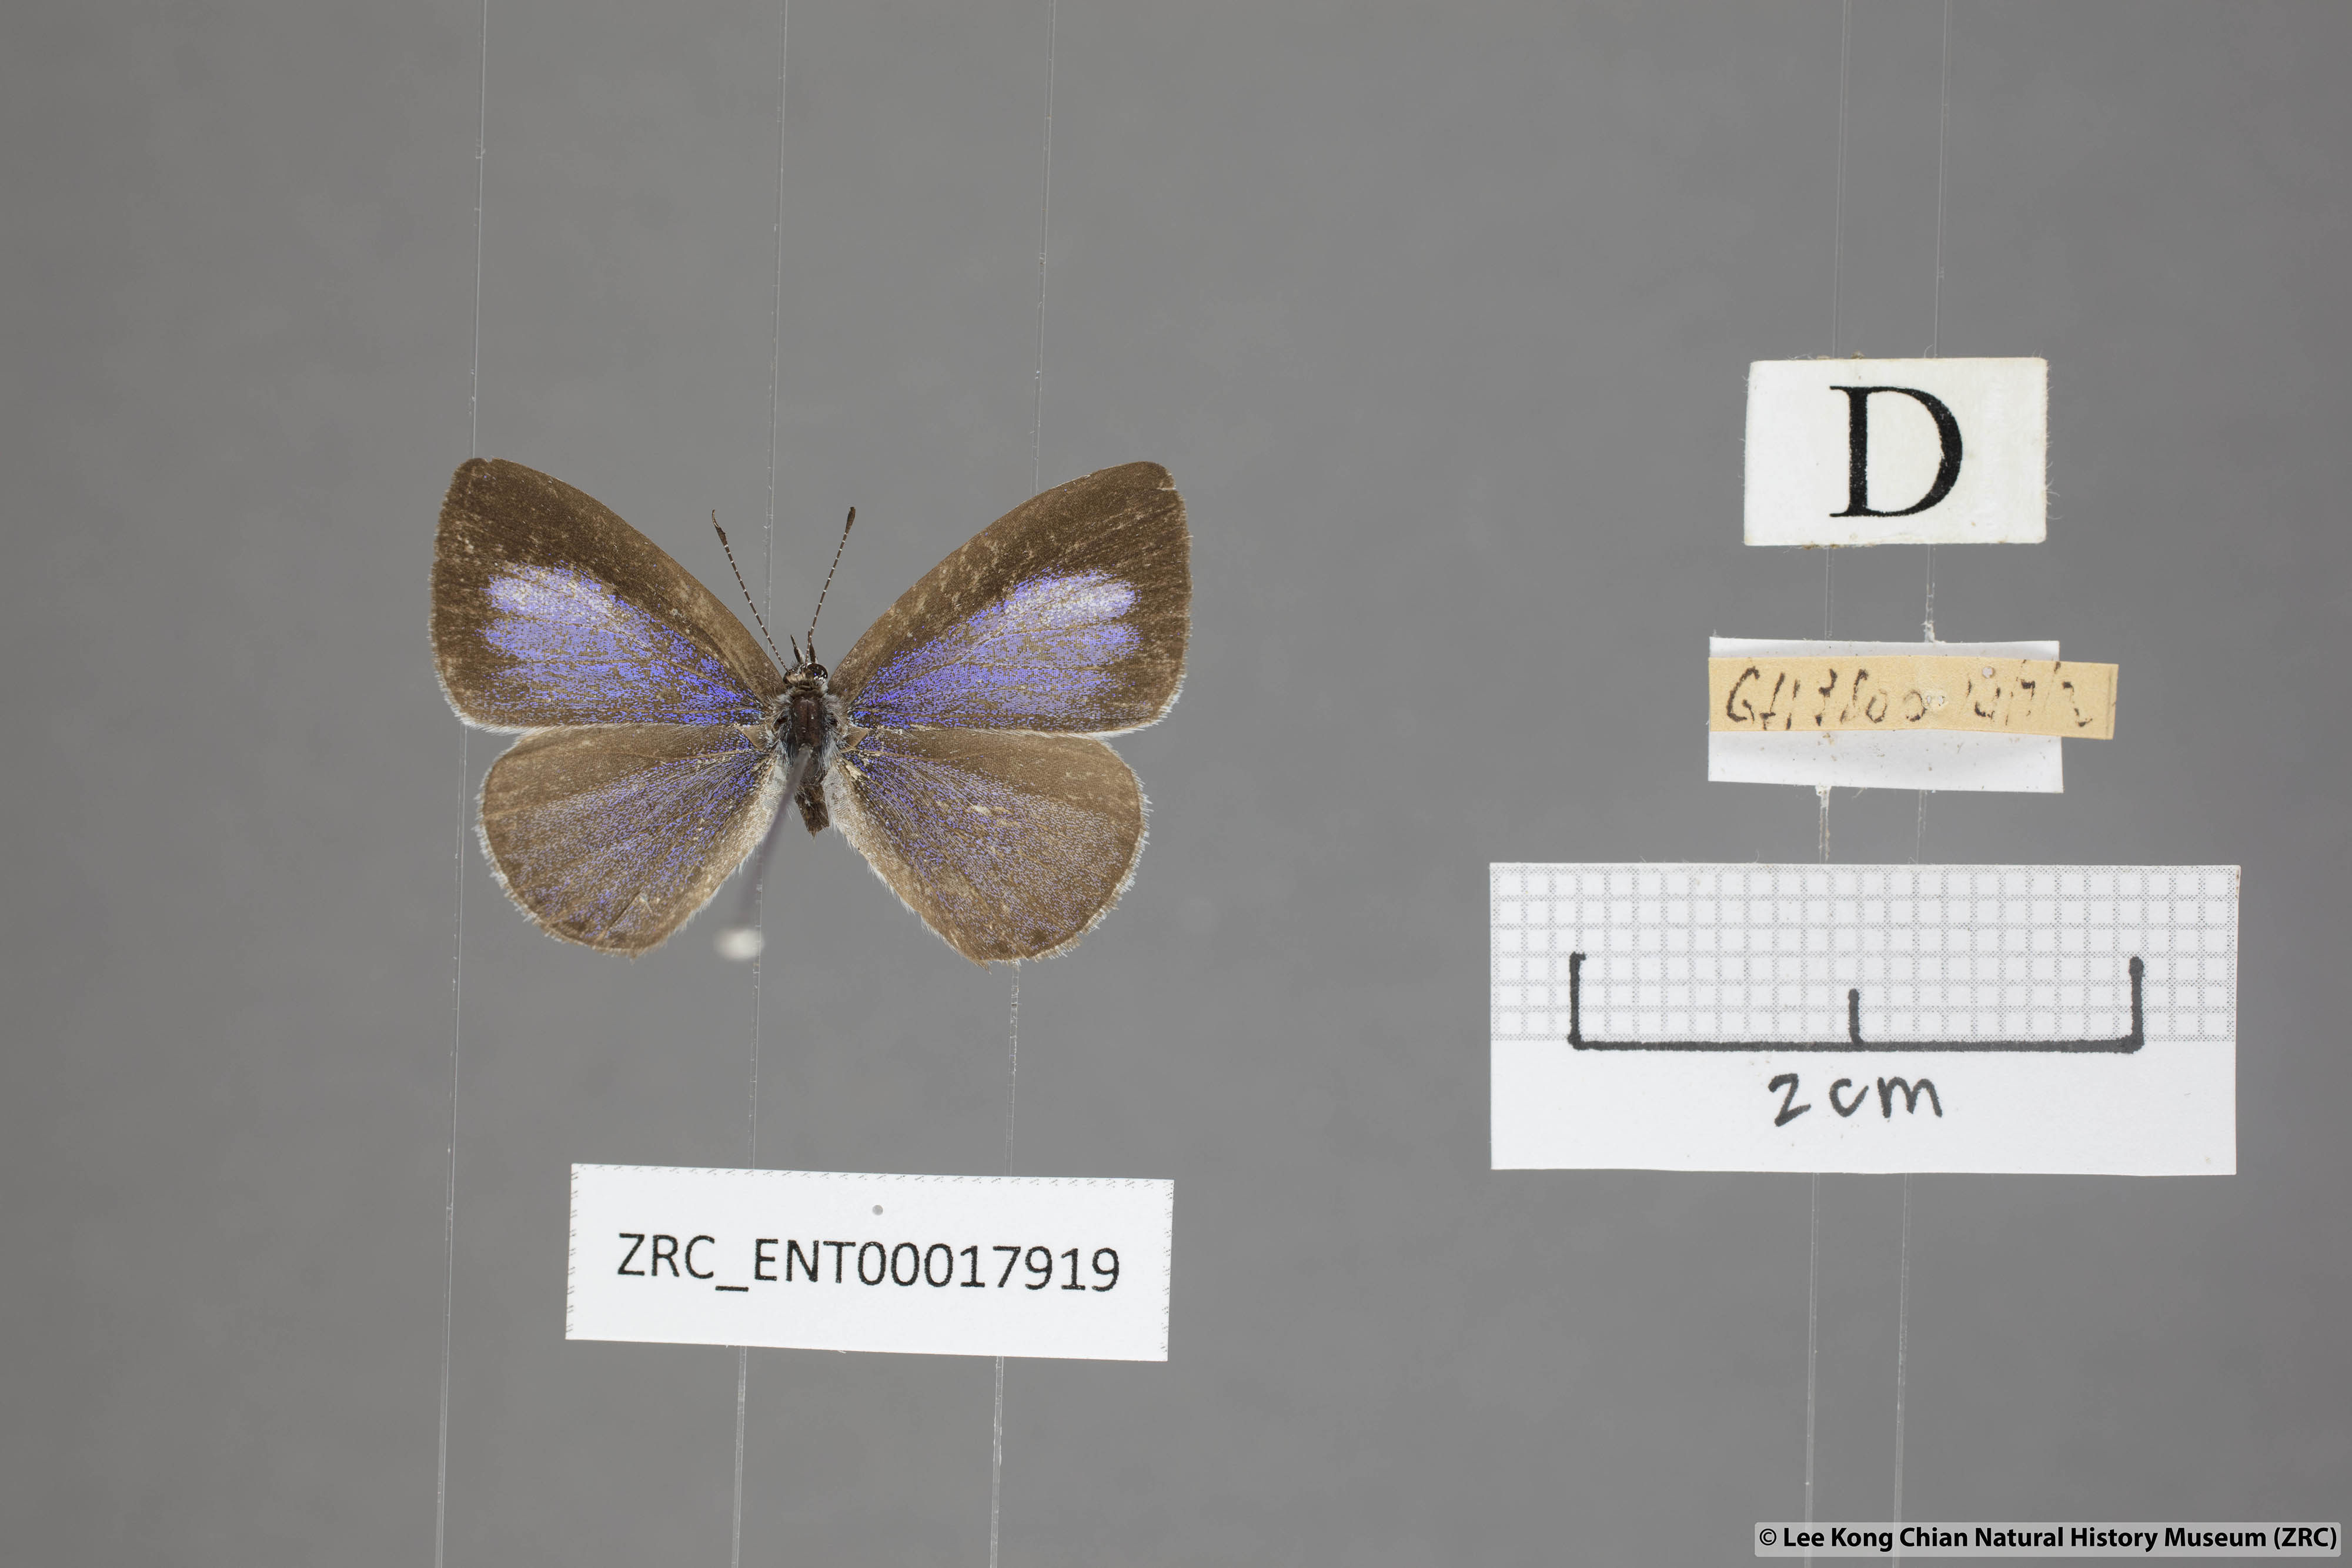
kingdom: Animalia
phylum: Arthropoda
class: Insecta
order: Lepidoptera
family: Lycaenidae
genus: Udara
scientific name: Udara
